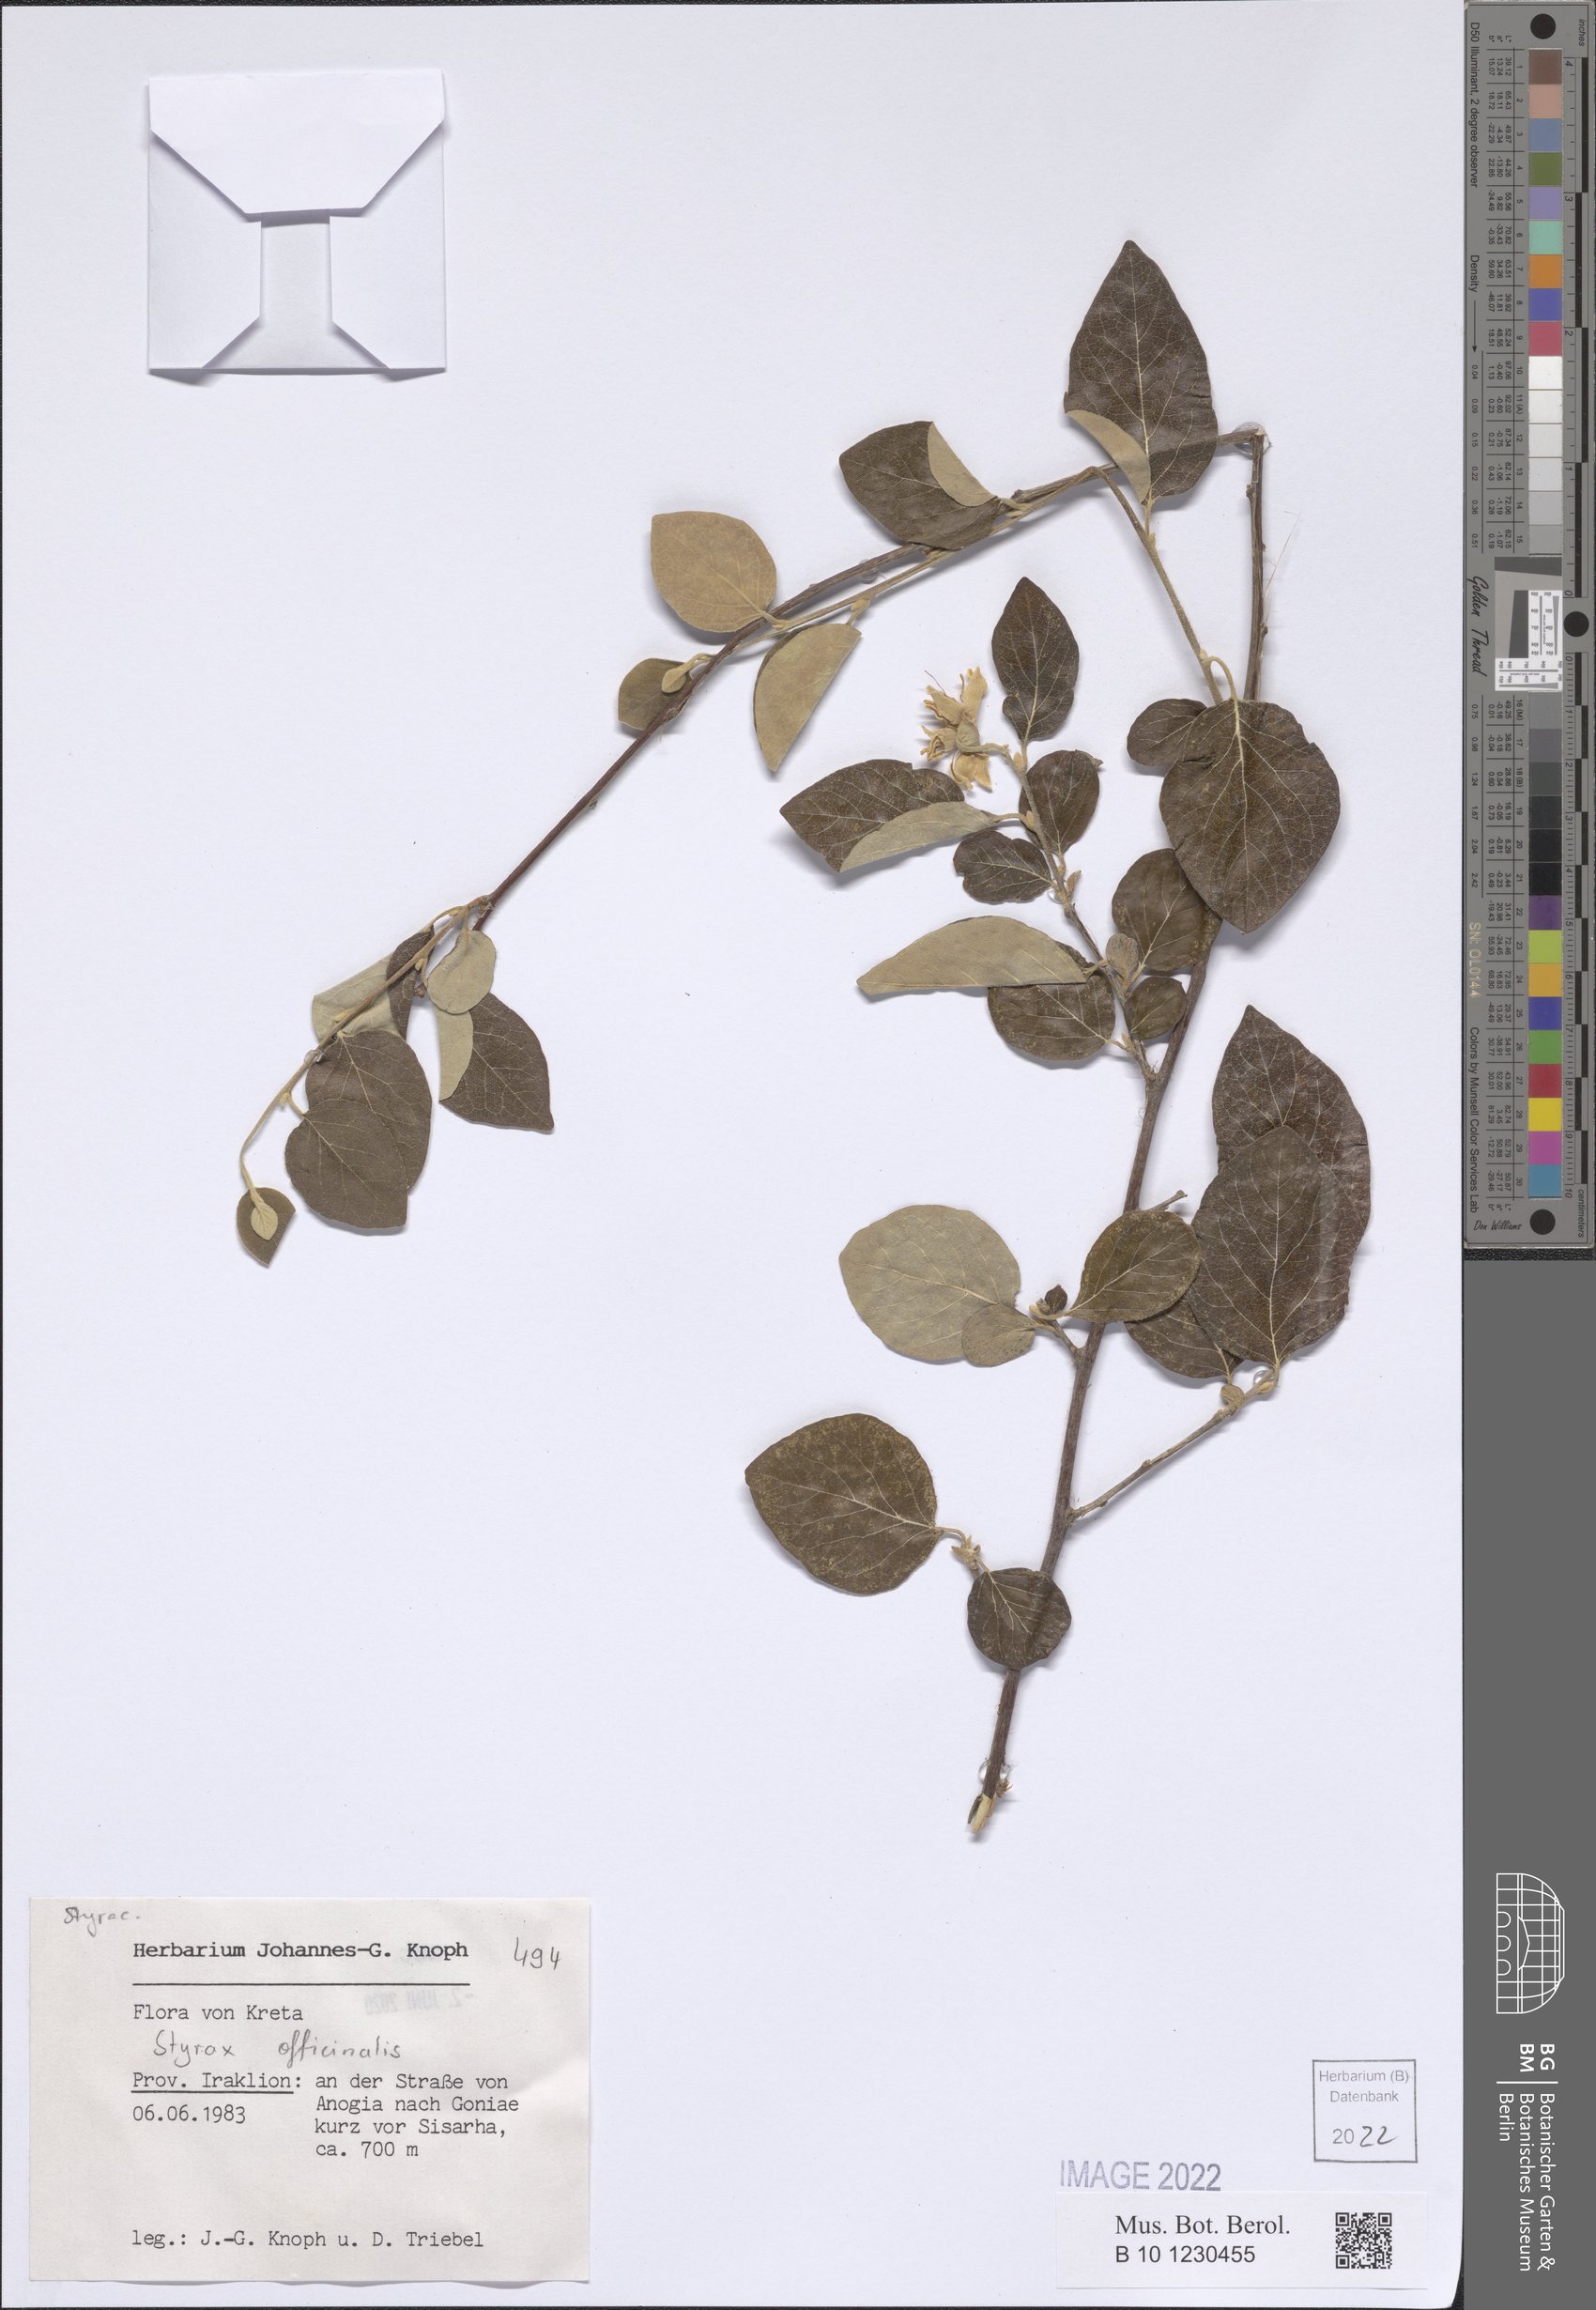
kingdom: Plantae
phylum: Tracheophyta
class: Magnoliopsida
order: Ericales
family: Styracaceae
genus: Styrax
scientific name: Styrax officinalis
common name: Storax
